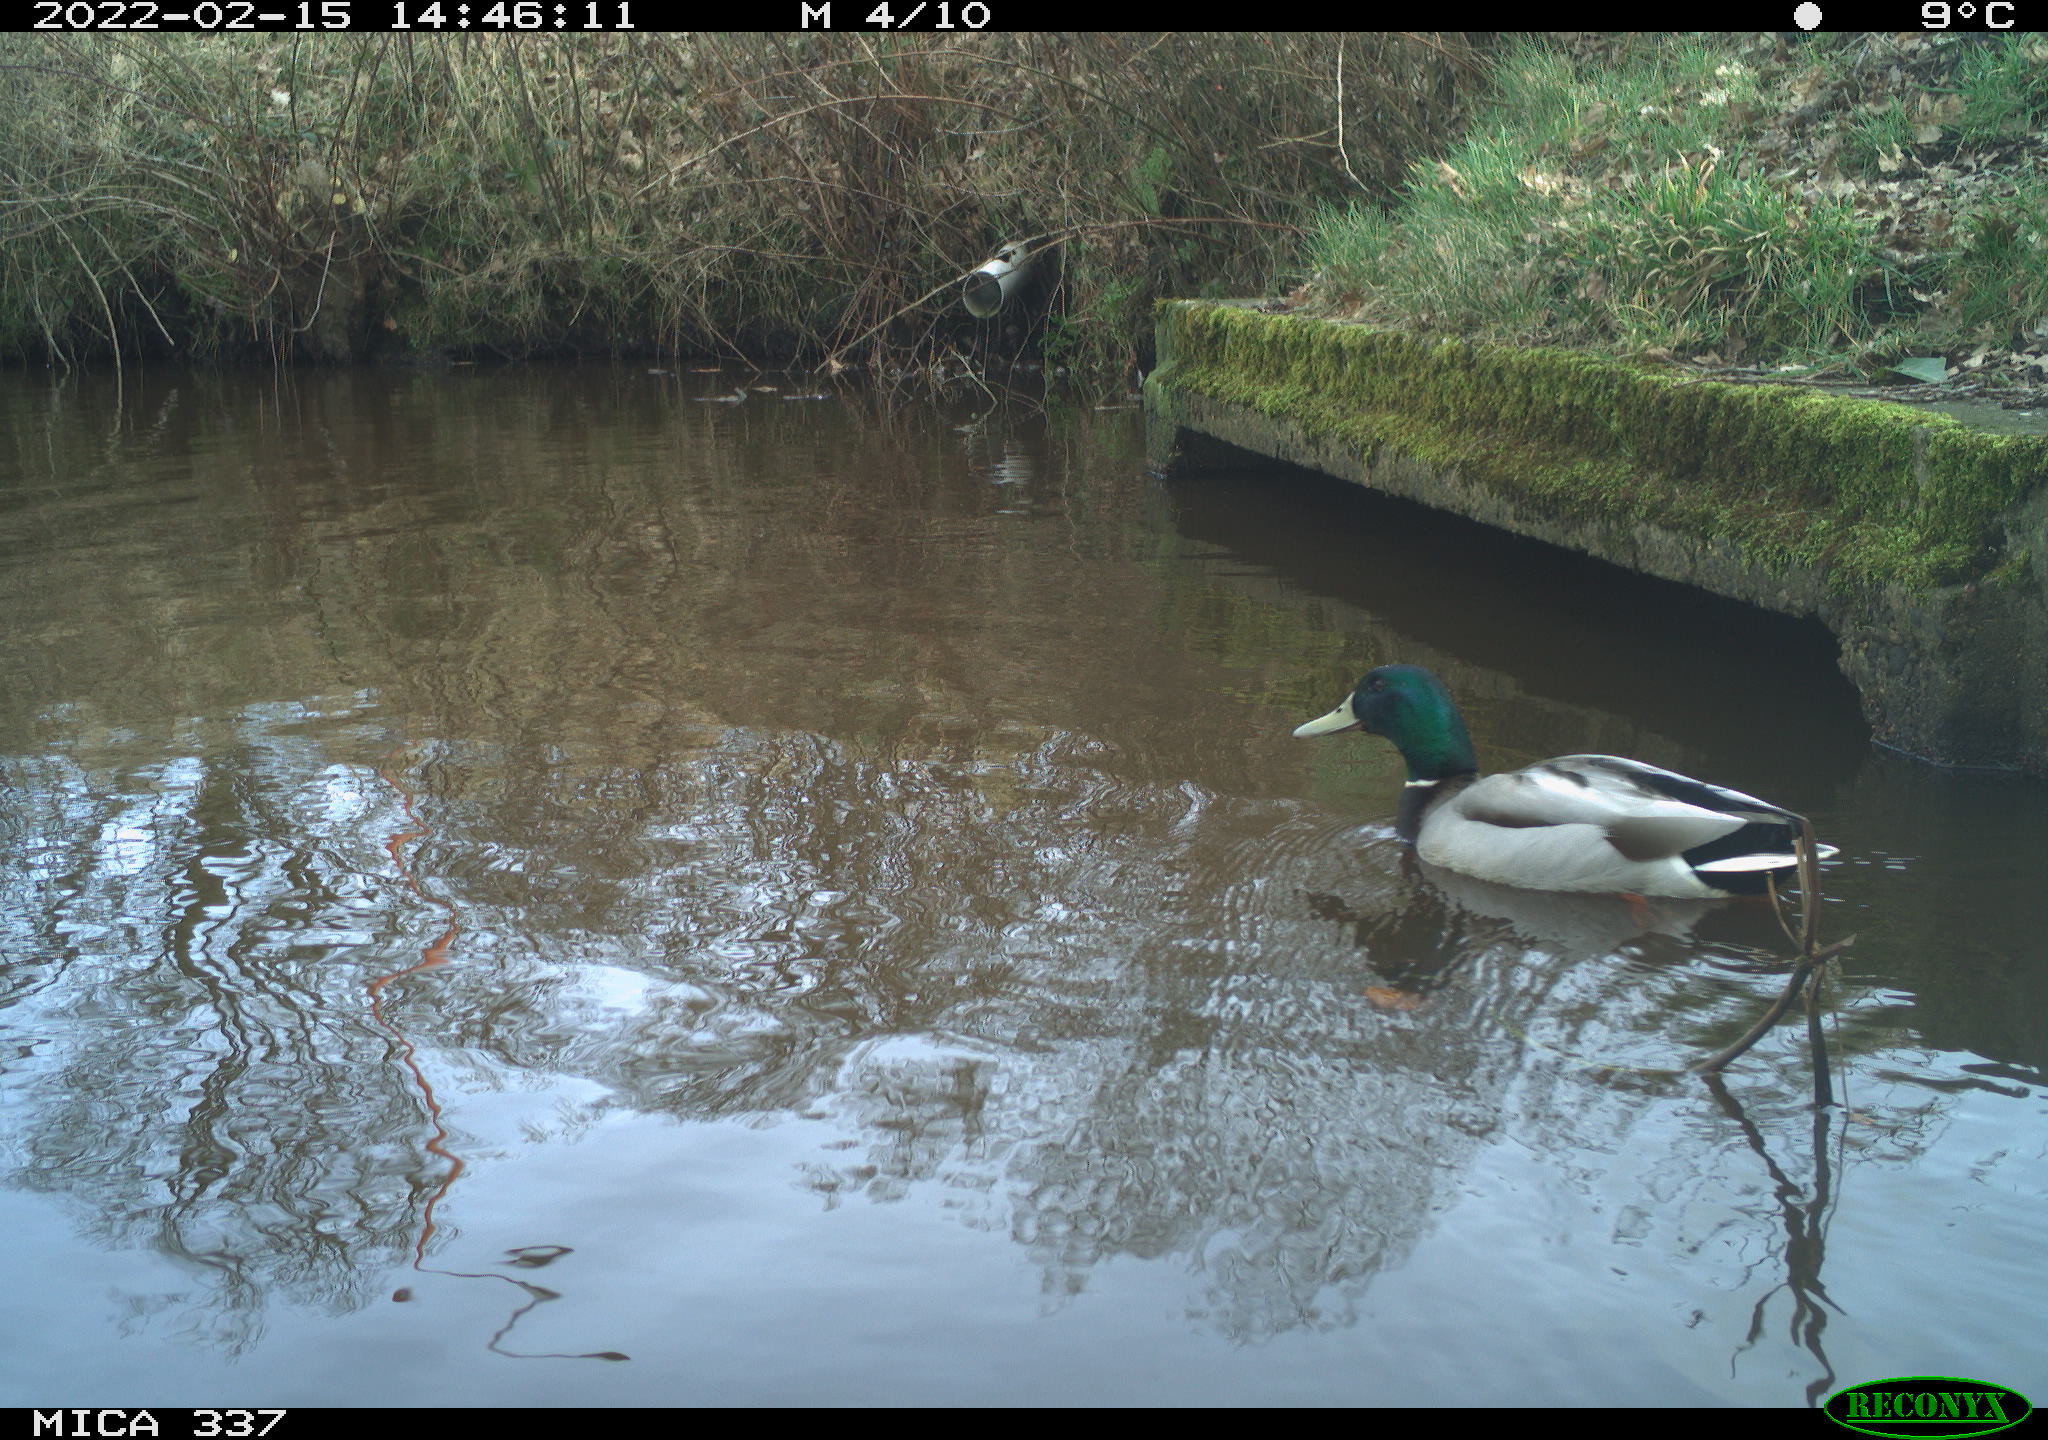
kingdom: Animalia
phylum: Chordata
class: Aves
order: Anseriformes
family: Anatidae
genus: Anas
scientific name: Anas platyrhynchos
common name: Mallard
